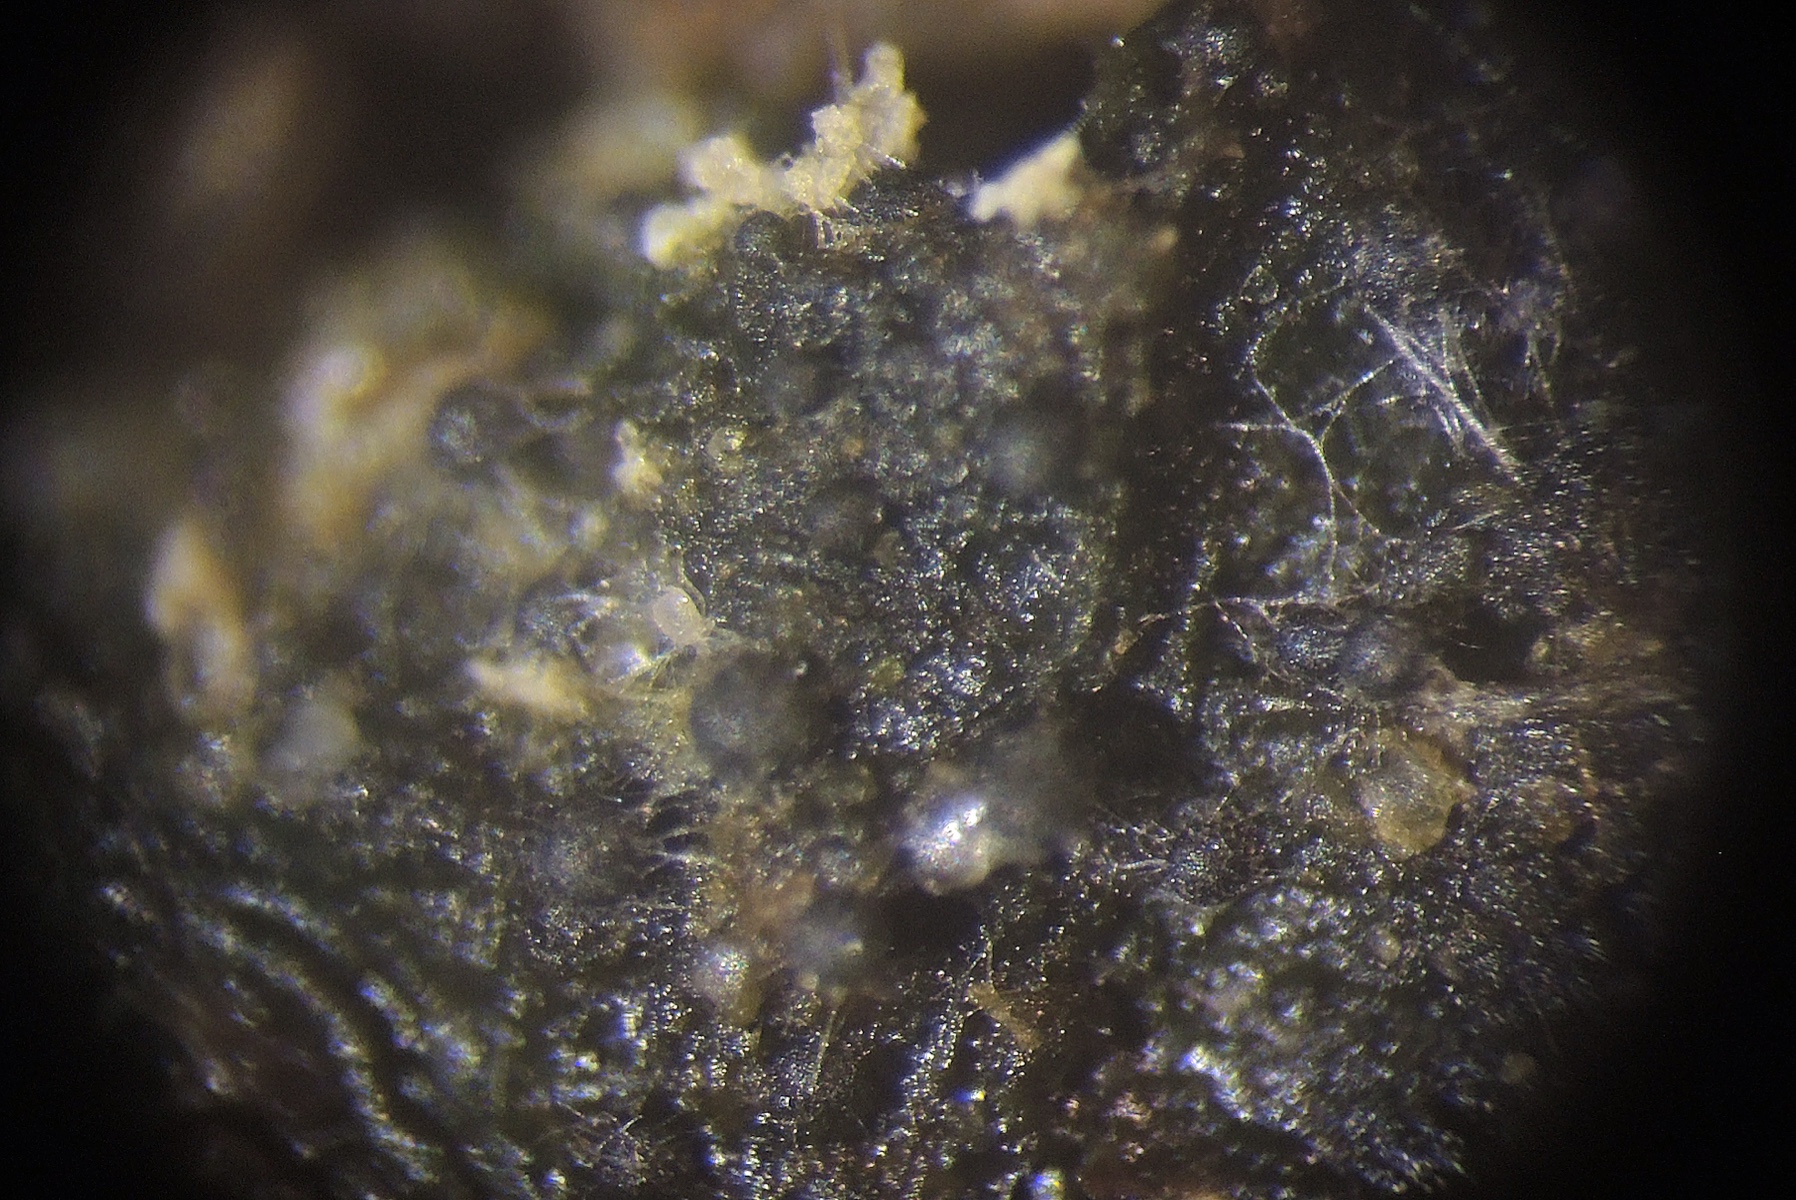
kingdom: Fungi
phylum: Ascomycota
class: Eurotiomycetes
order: Eurotiales
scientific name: Eurotiales
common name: kuglesækordenen
